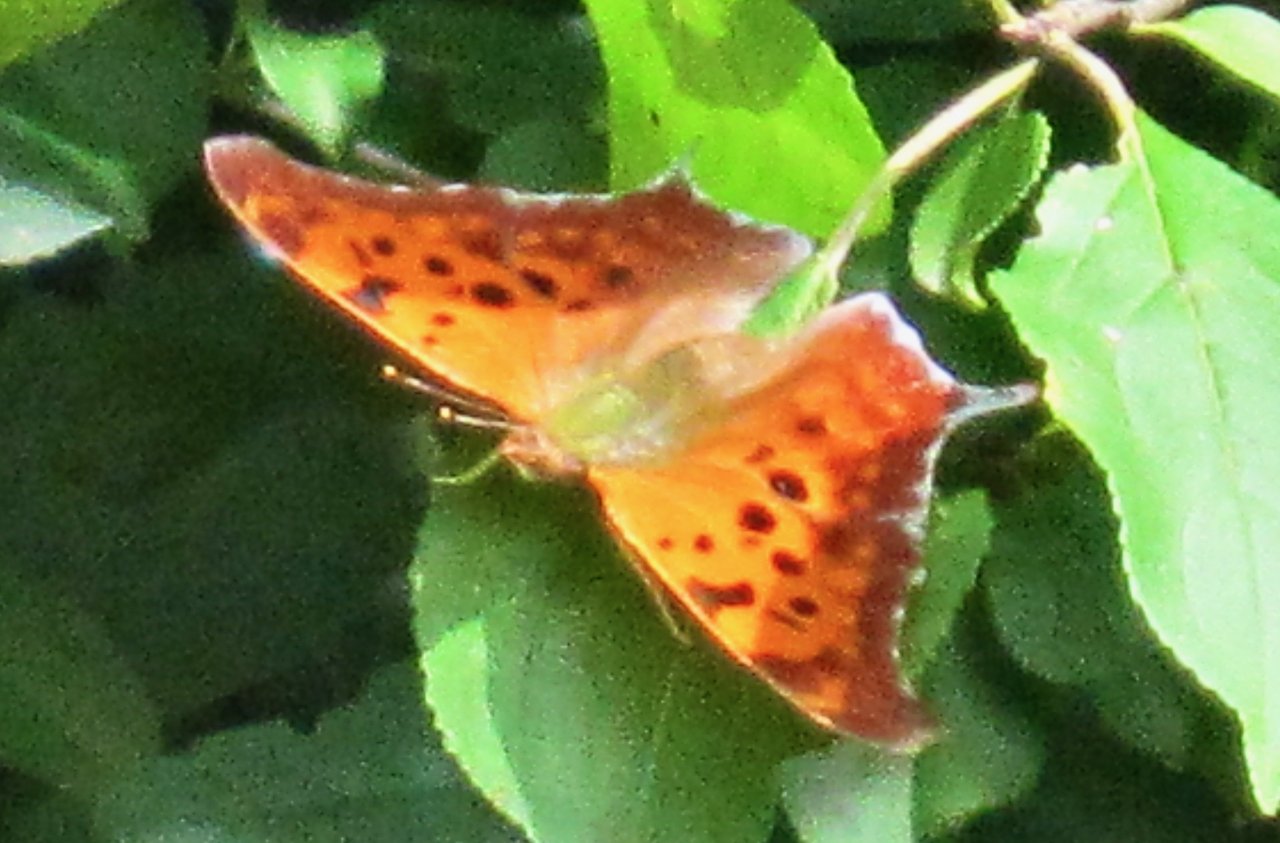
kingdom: Animalia
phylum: Arthropoda
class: Insecta
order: Lepidoptera
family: Nymphalidae
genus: Polygonia
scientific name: Polygonia interrogationis
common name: Question Mark
